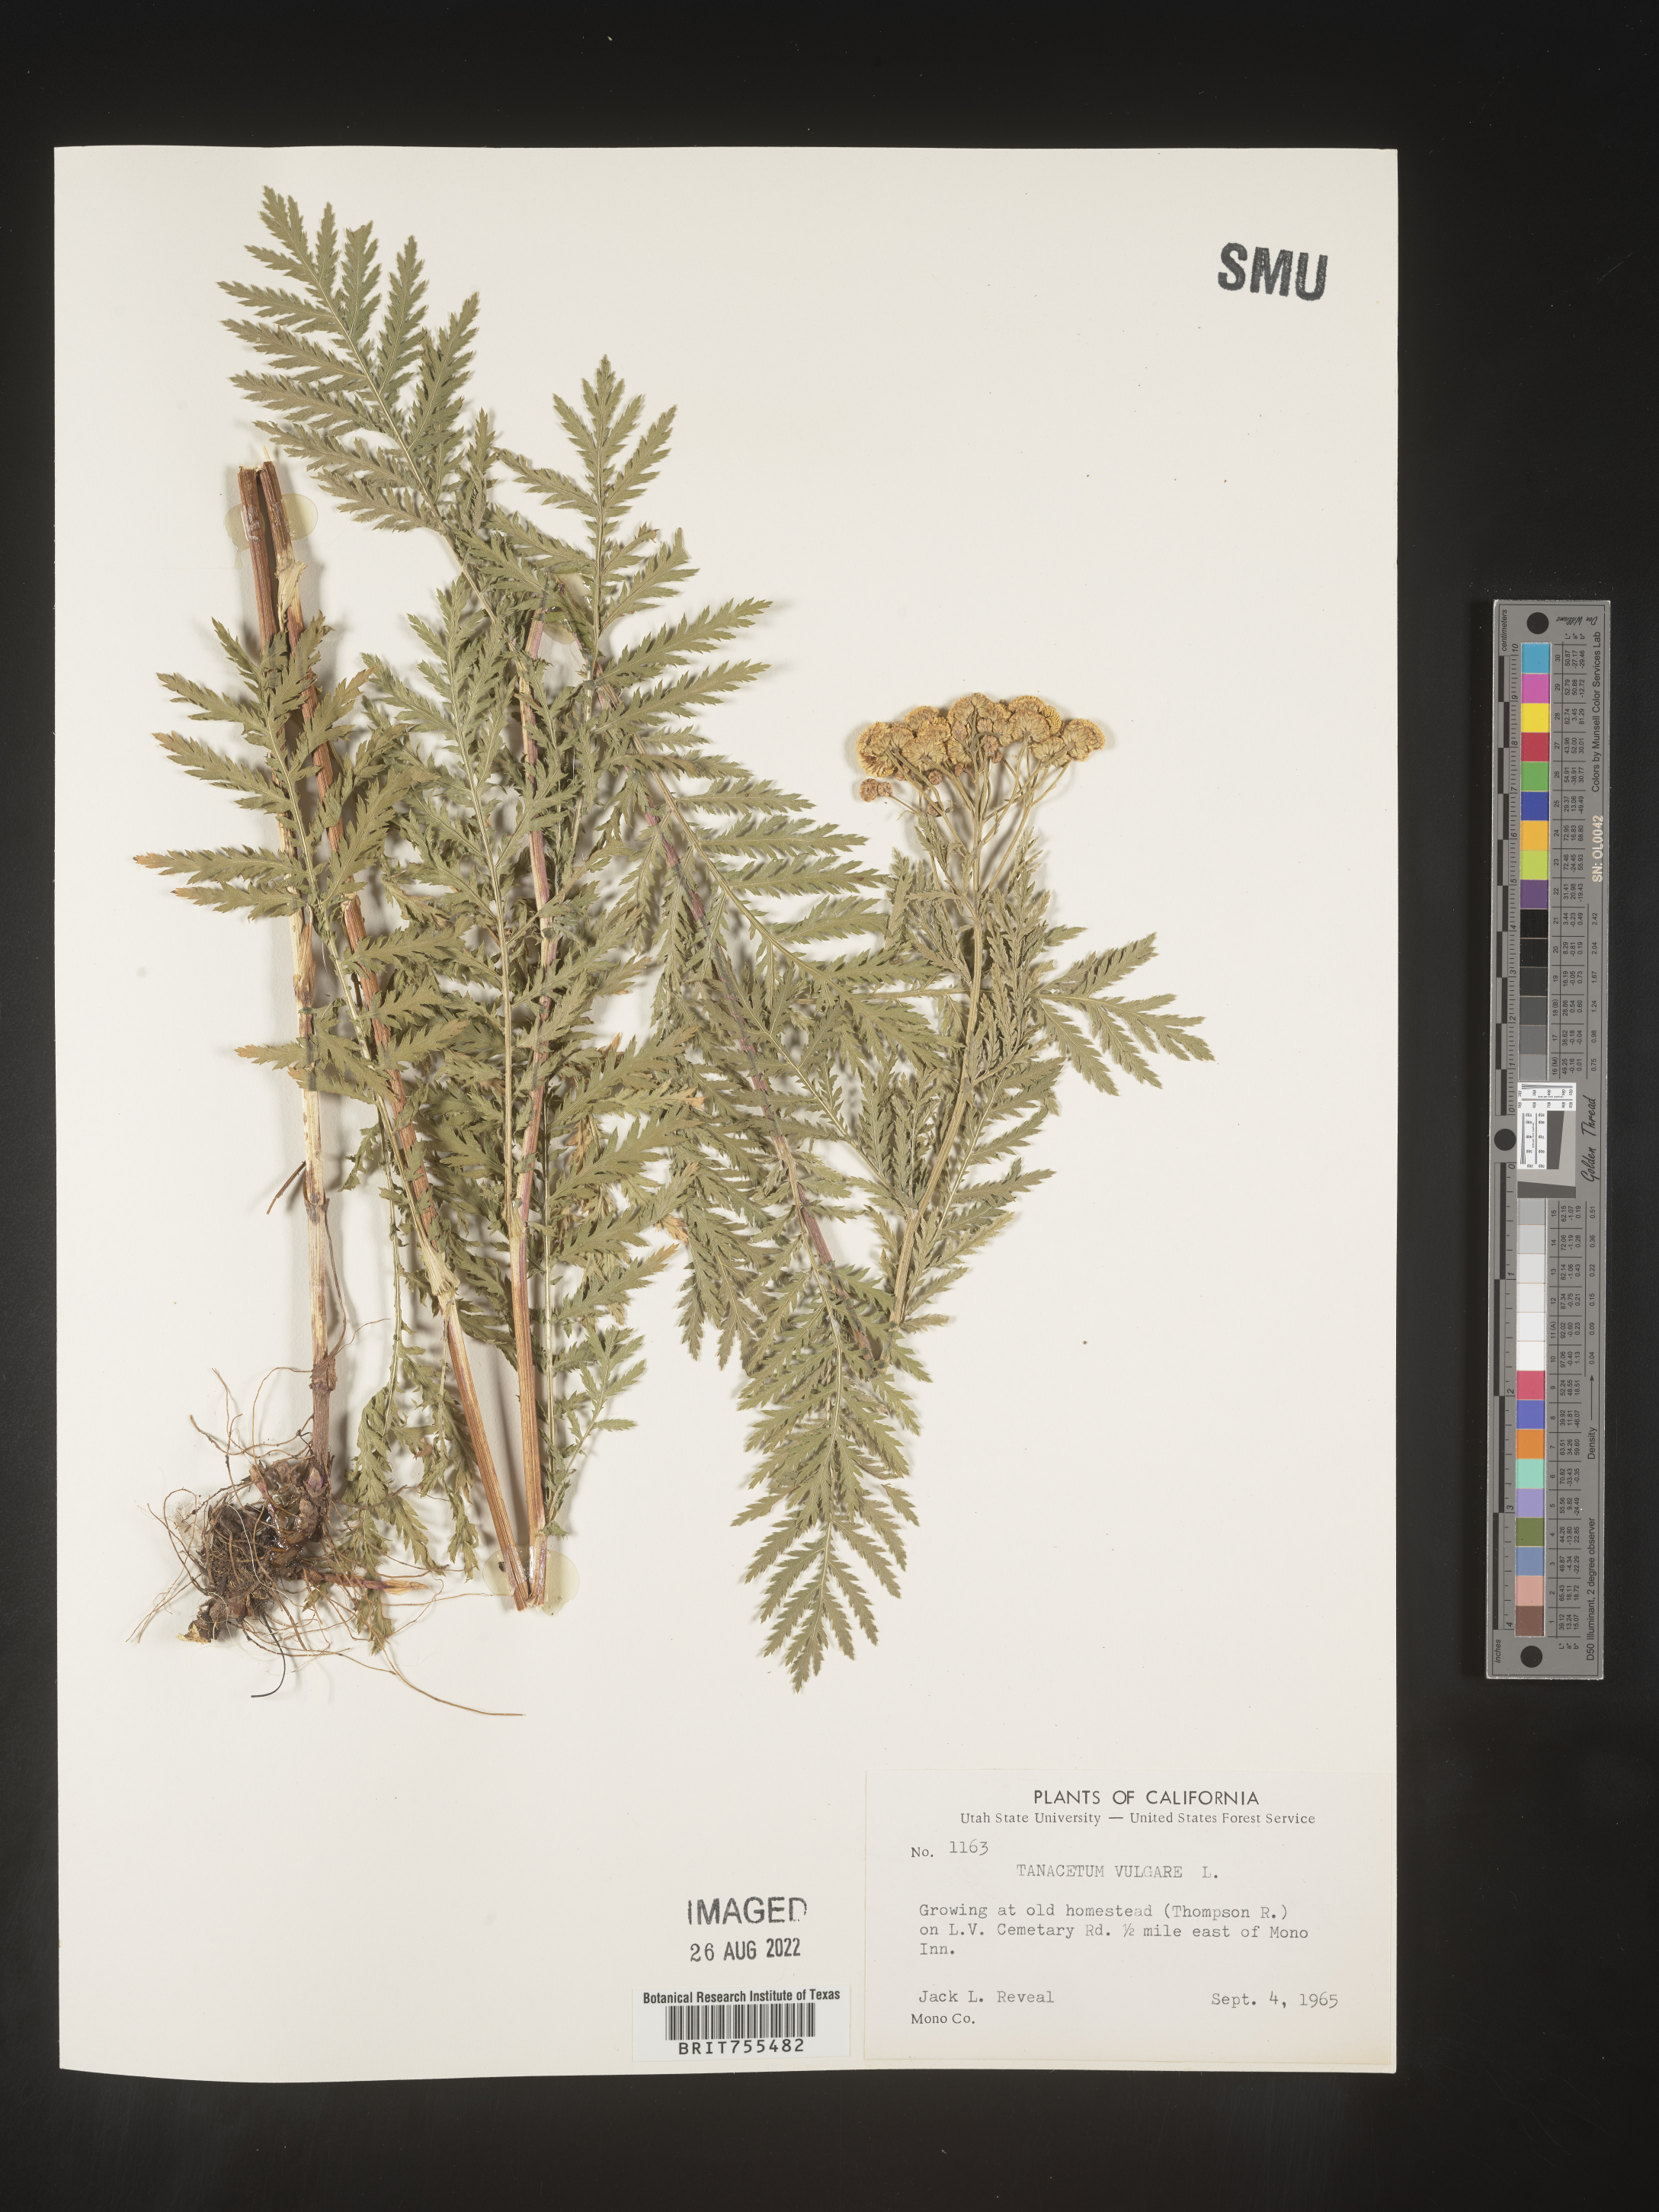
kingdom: Plantae
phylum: Tracheophyta
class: Magnoliopsida
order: Asterales
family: Asteraceae
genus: Tanacetum
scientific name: Tanacetum vulgare
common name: Common tansy
